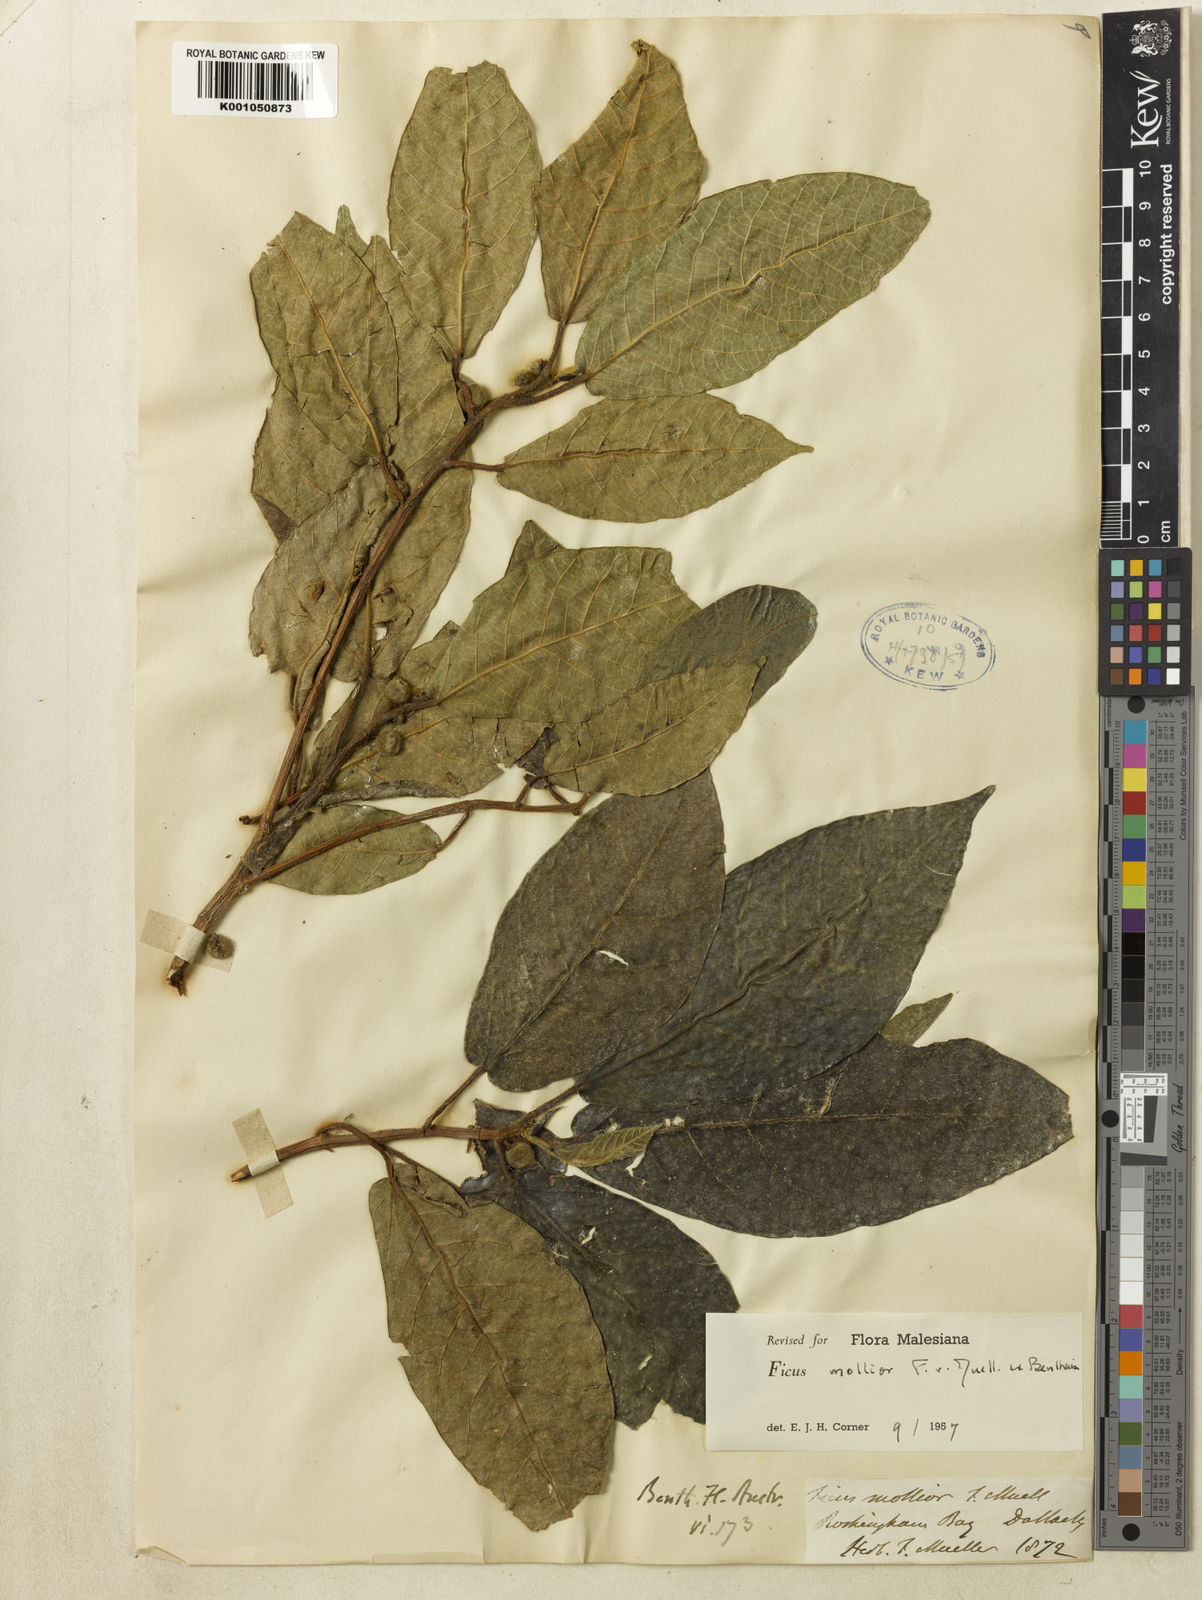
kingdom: Plantae
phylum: Tracheophyta
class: Magnoliopsida
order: Rosales
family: Moraceae
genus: Ficus
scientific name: Ficus mollior
